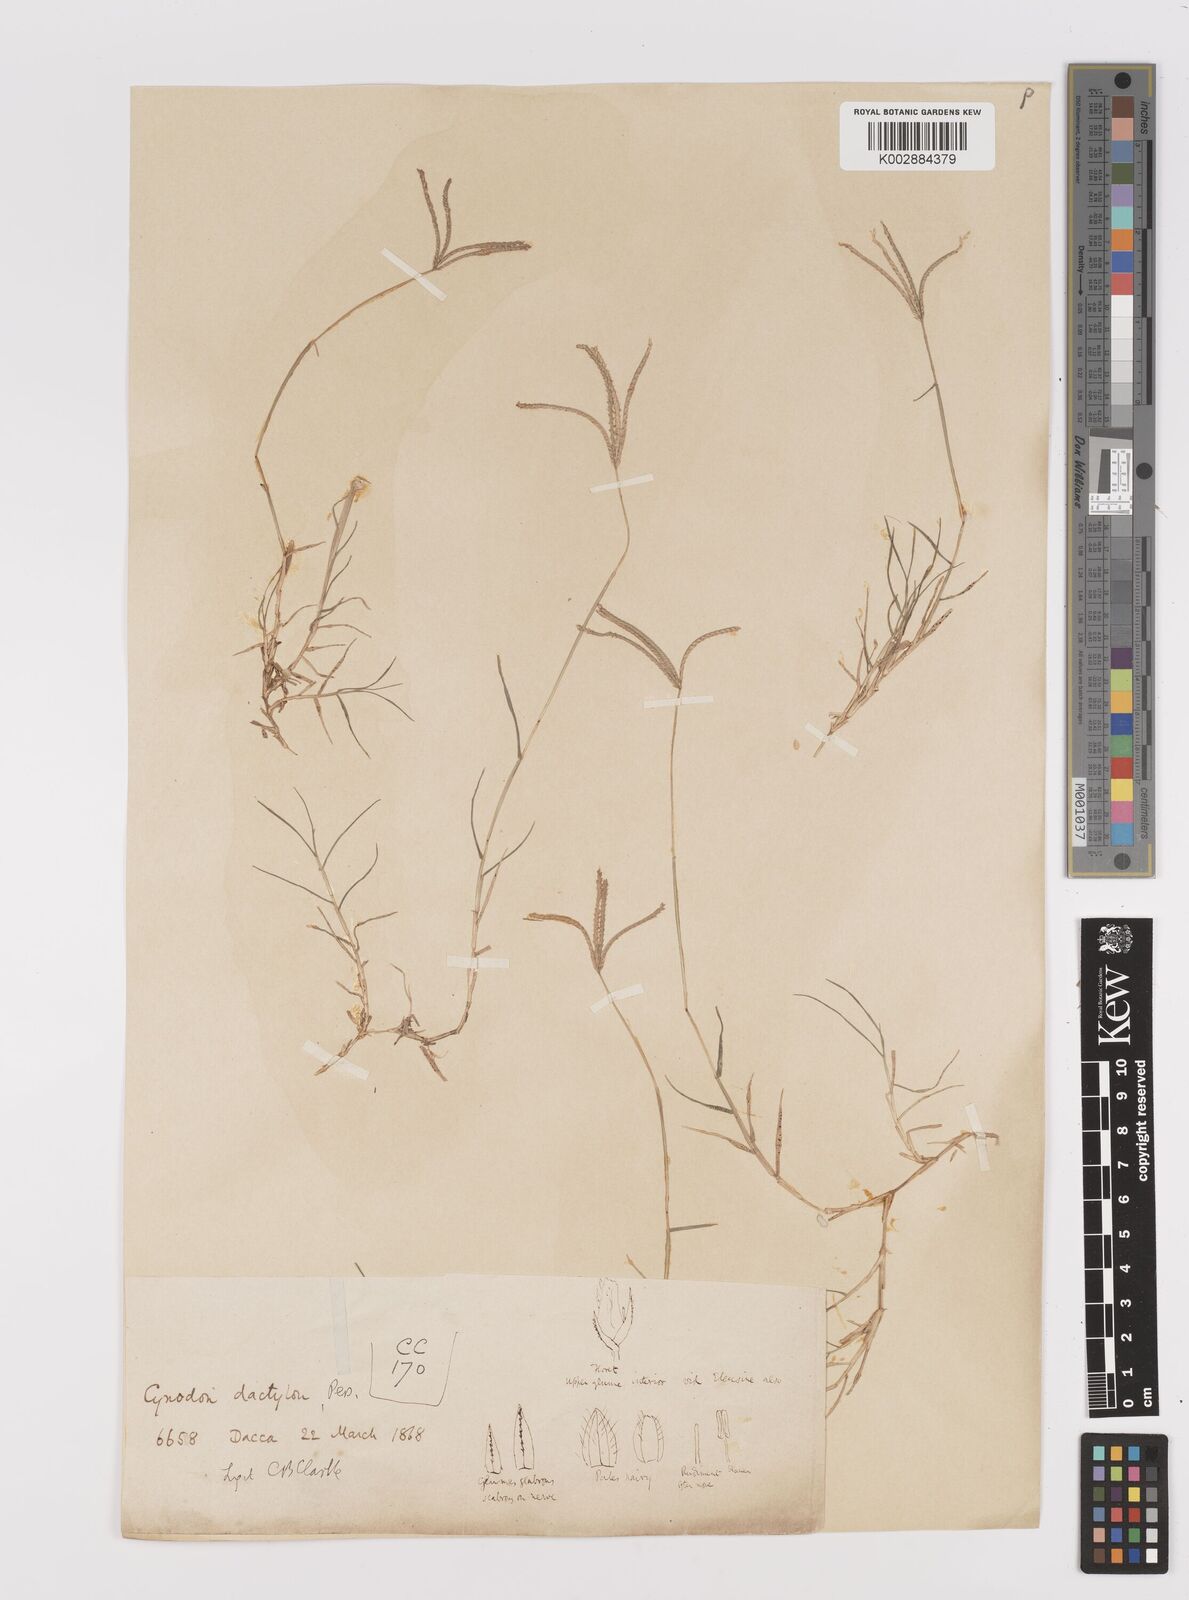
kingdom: Plantae
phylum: Tracheophyta
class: Liliopsida
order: Poales
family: Poaceae
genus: Cynodon
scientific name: Cynodon dactylon
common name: Bermuda grass
